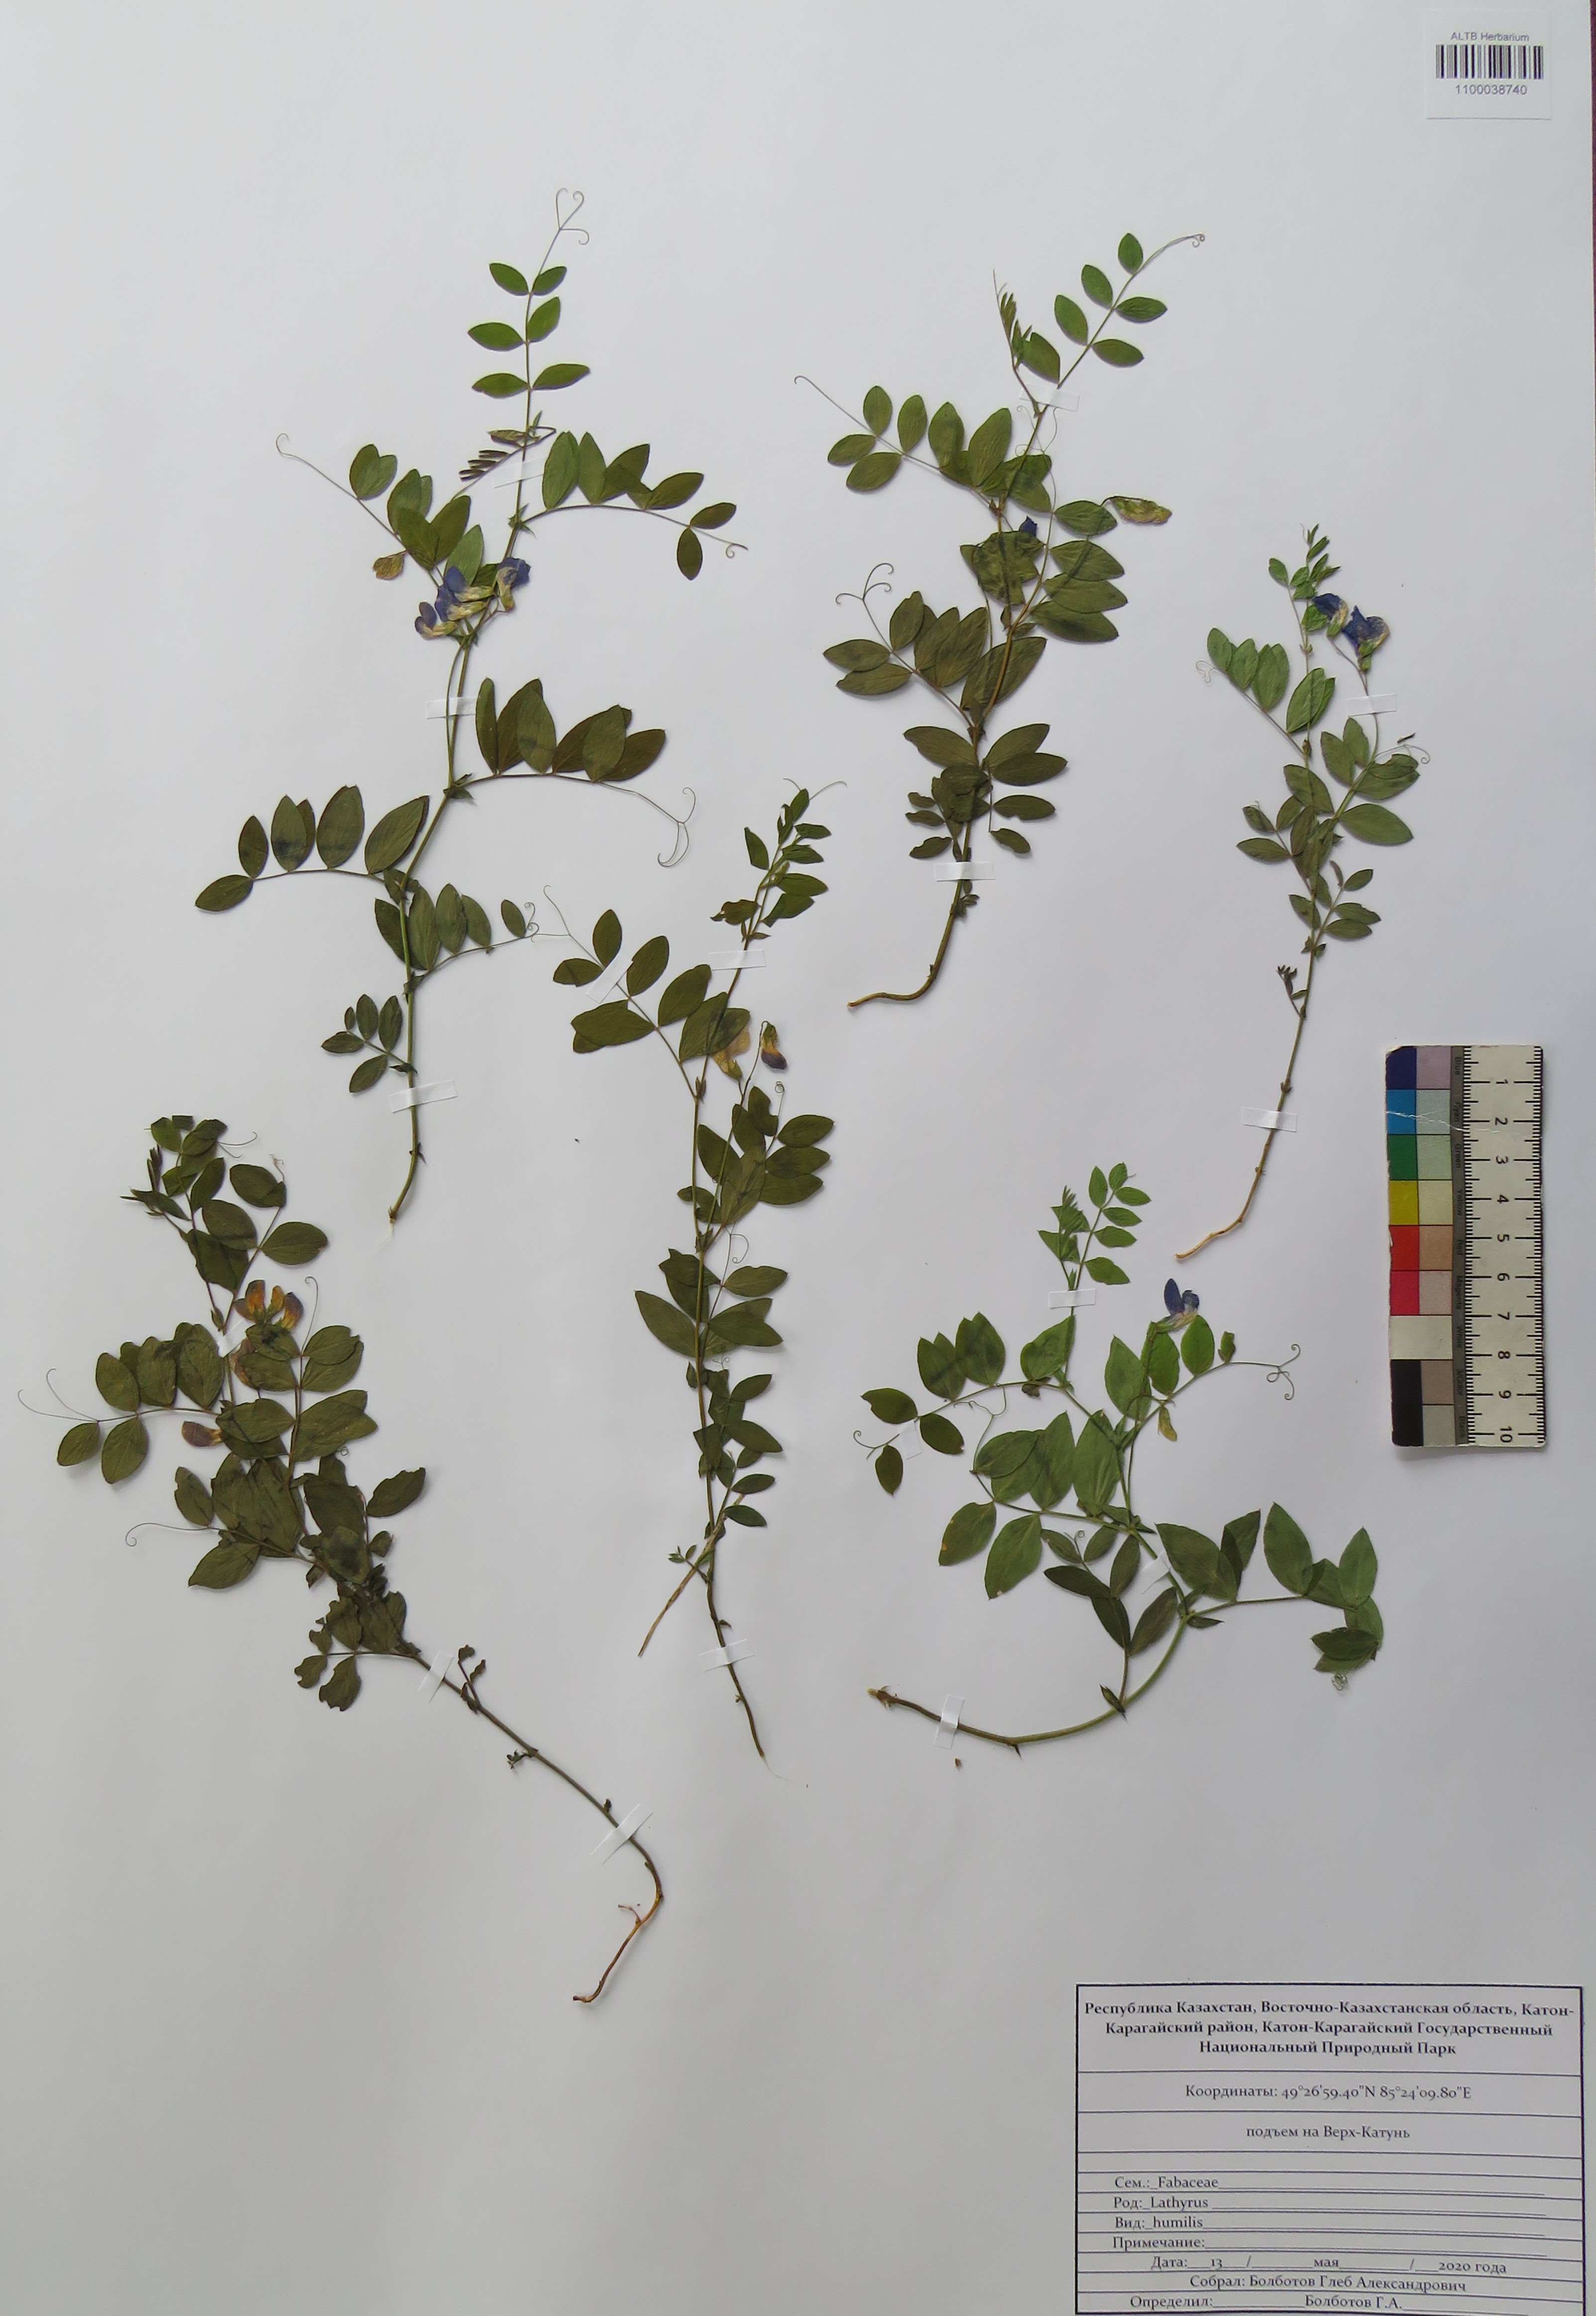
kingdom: Plantae
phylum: Tracheophyta
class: Magnoliopsida
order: Fabales
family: Fabaceae
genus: Lathyrus
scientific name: Lathyrus humilis
